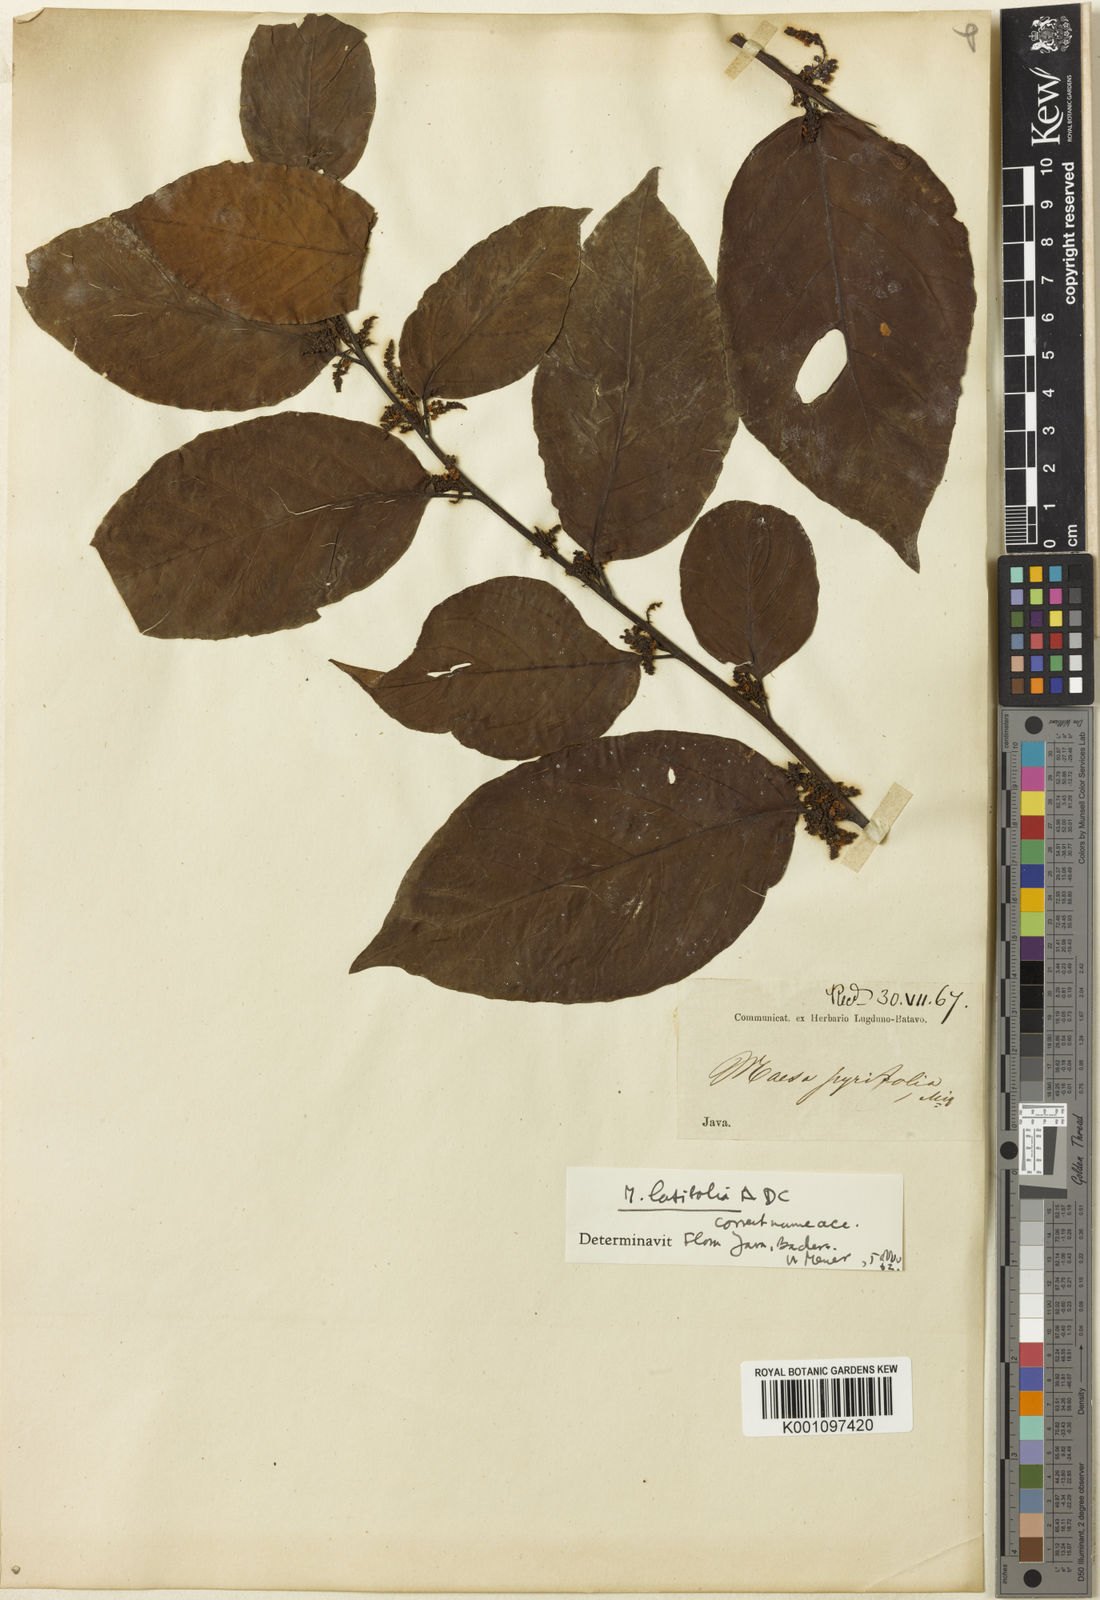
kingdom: Plantae
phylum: Tracheophyta
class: Magnoliopsida
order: Ericales
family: Primulaceae
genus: Maesa
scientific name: Maesa latifolia
